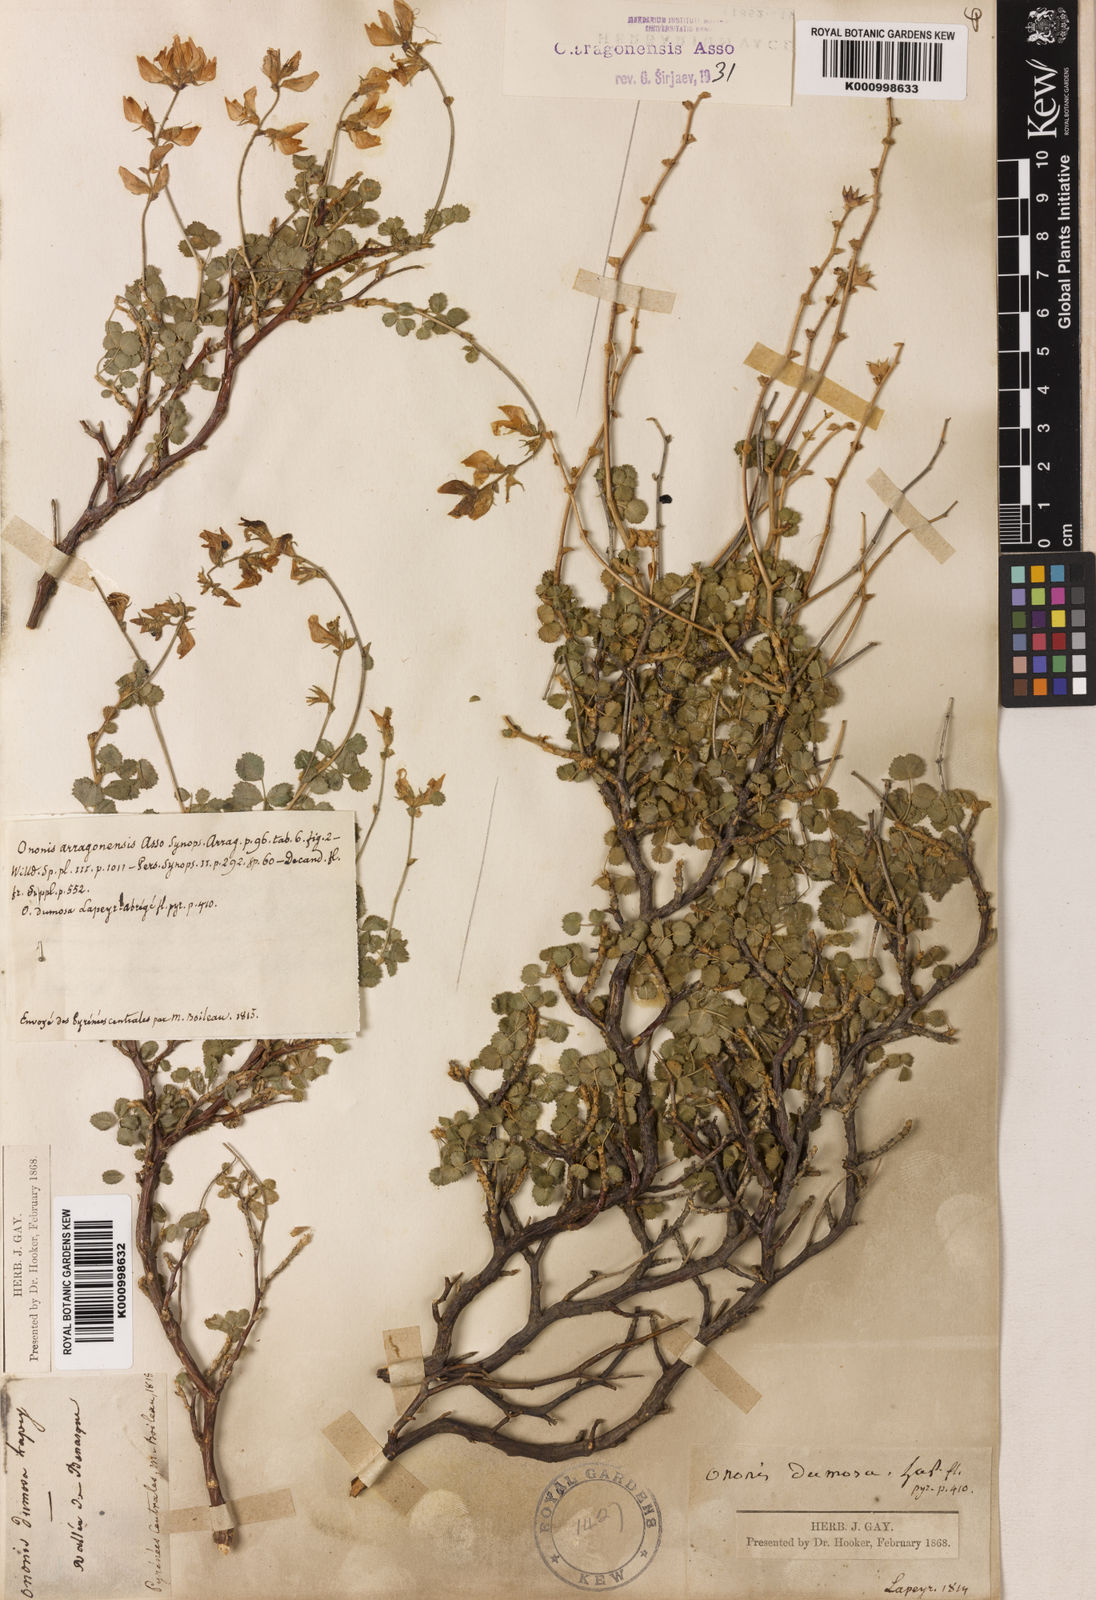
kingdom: Plantae
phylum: Tracheophyta
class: Magnoliopsida
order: Fabales
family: Fabaceae
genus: Ononis
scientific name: Ononis aragonensis
